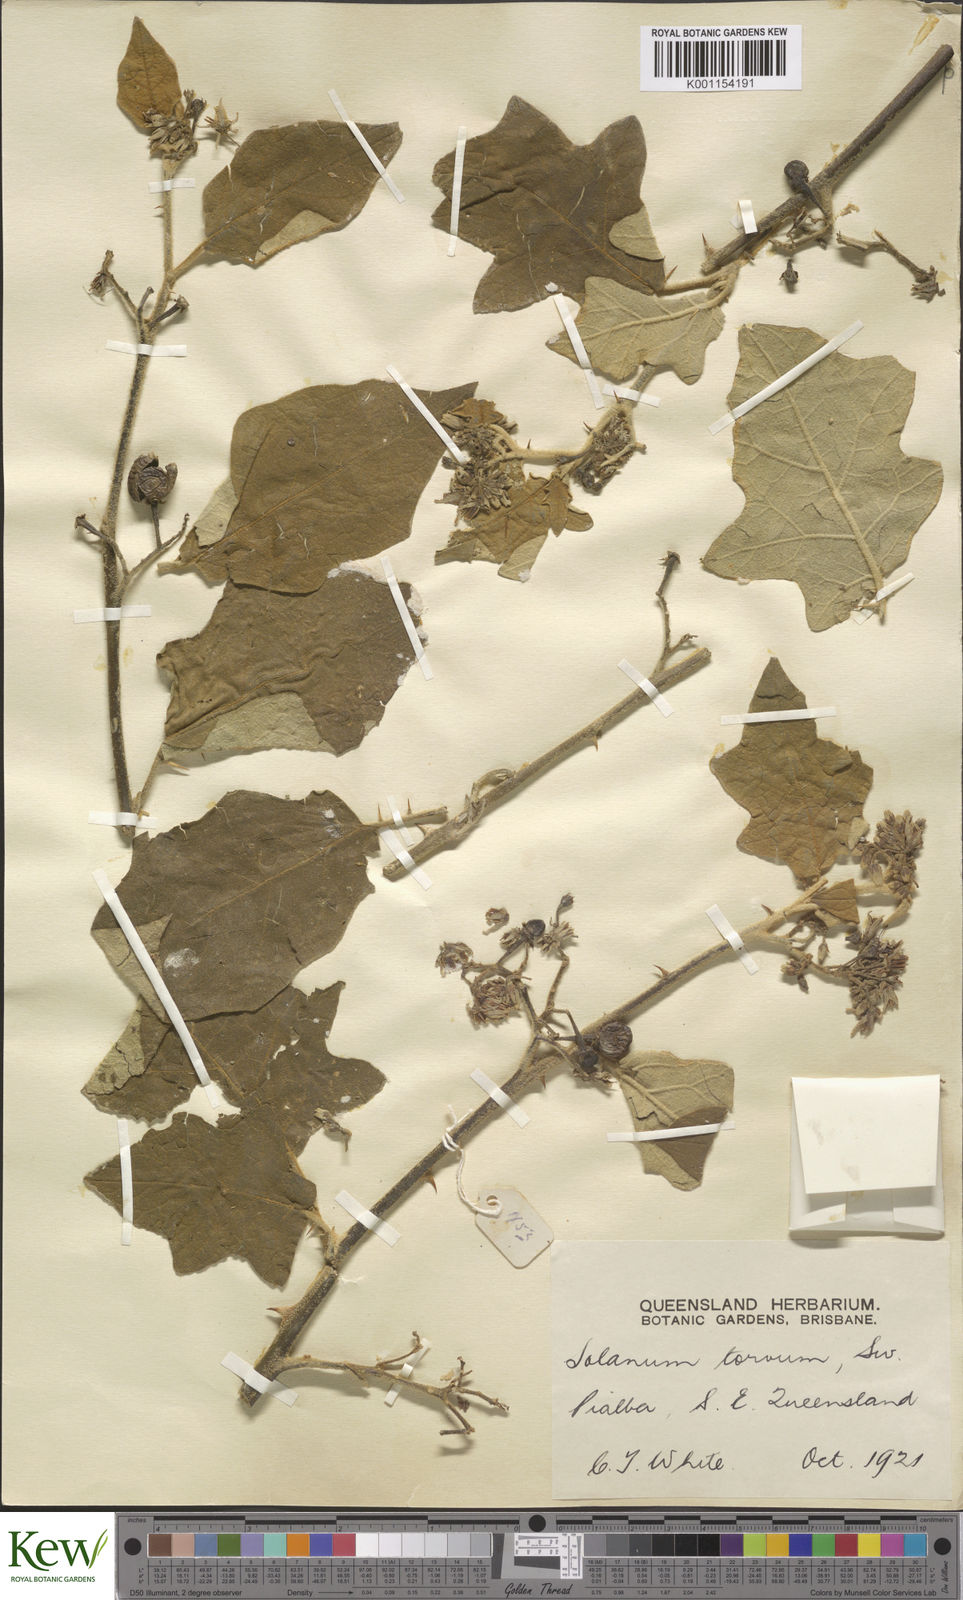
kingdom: Plantae
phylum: Tracheophyta
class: Magnoliopsida
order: Solanales
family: Solanaceae
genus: Solanum
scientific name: Solanum torvum
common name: Turkey berry
